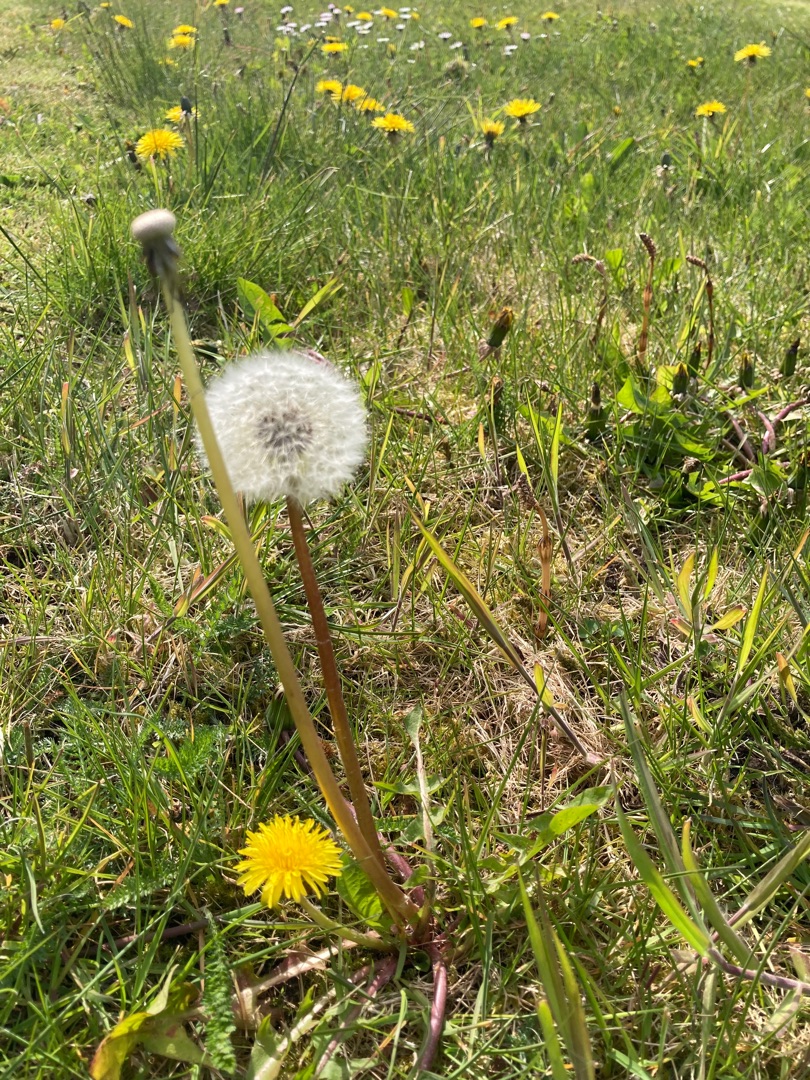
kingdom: Plantae
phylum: Tracheophyta
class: Magnoliopsida
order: Asterales
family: Asteraceae
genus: Taraxacum
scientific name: Taraxacum
